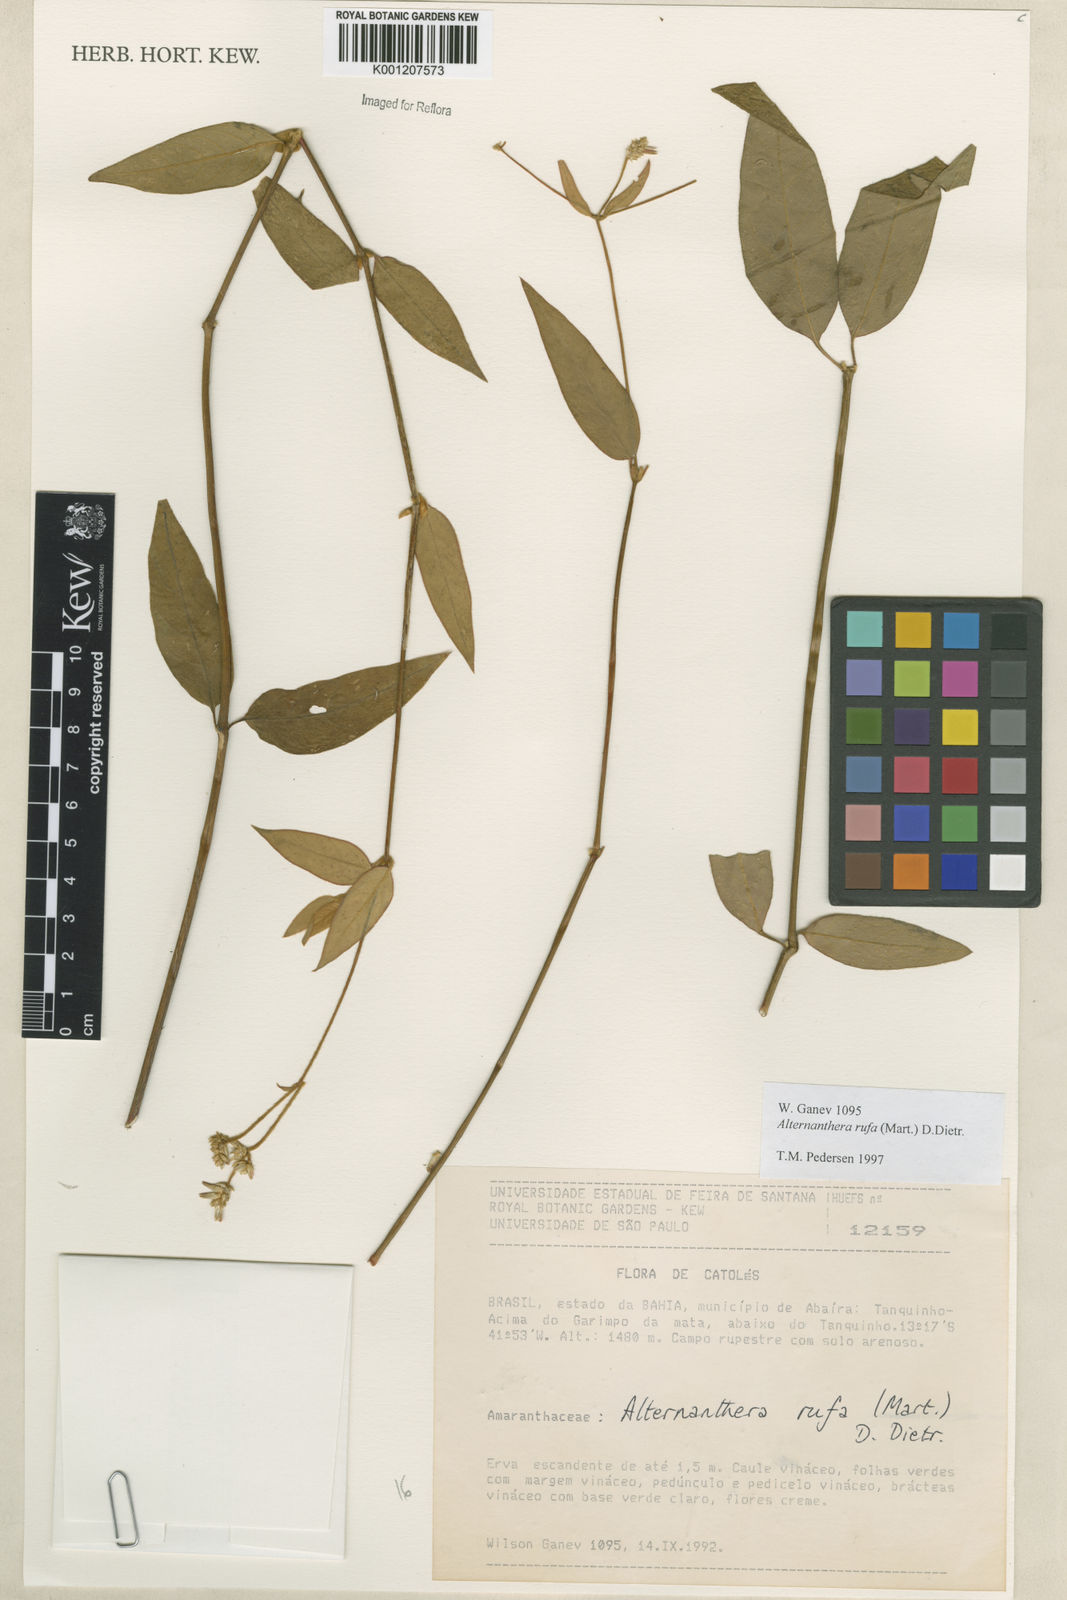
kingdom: Plantae
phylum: Tracheophyta
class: Magnoliopsida
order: Caryophyllales
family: Amaranthaceae
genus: Alternanthera
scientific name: Alternanthera rufa
